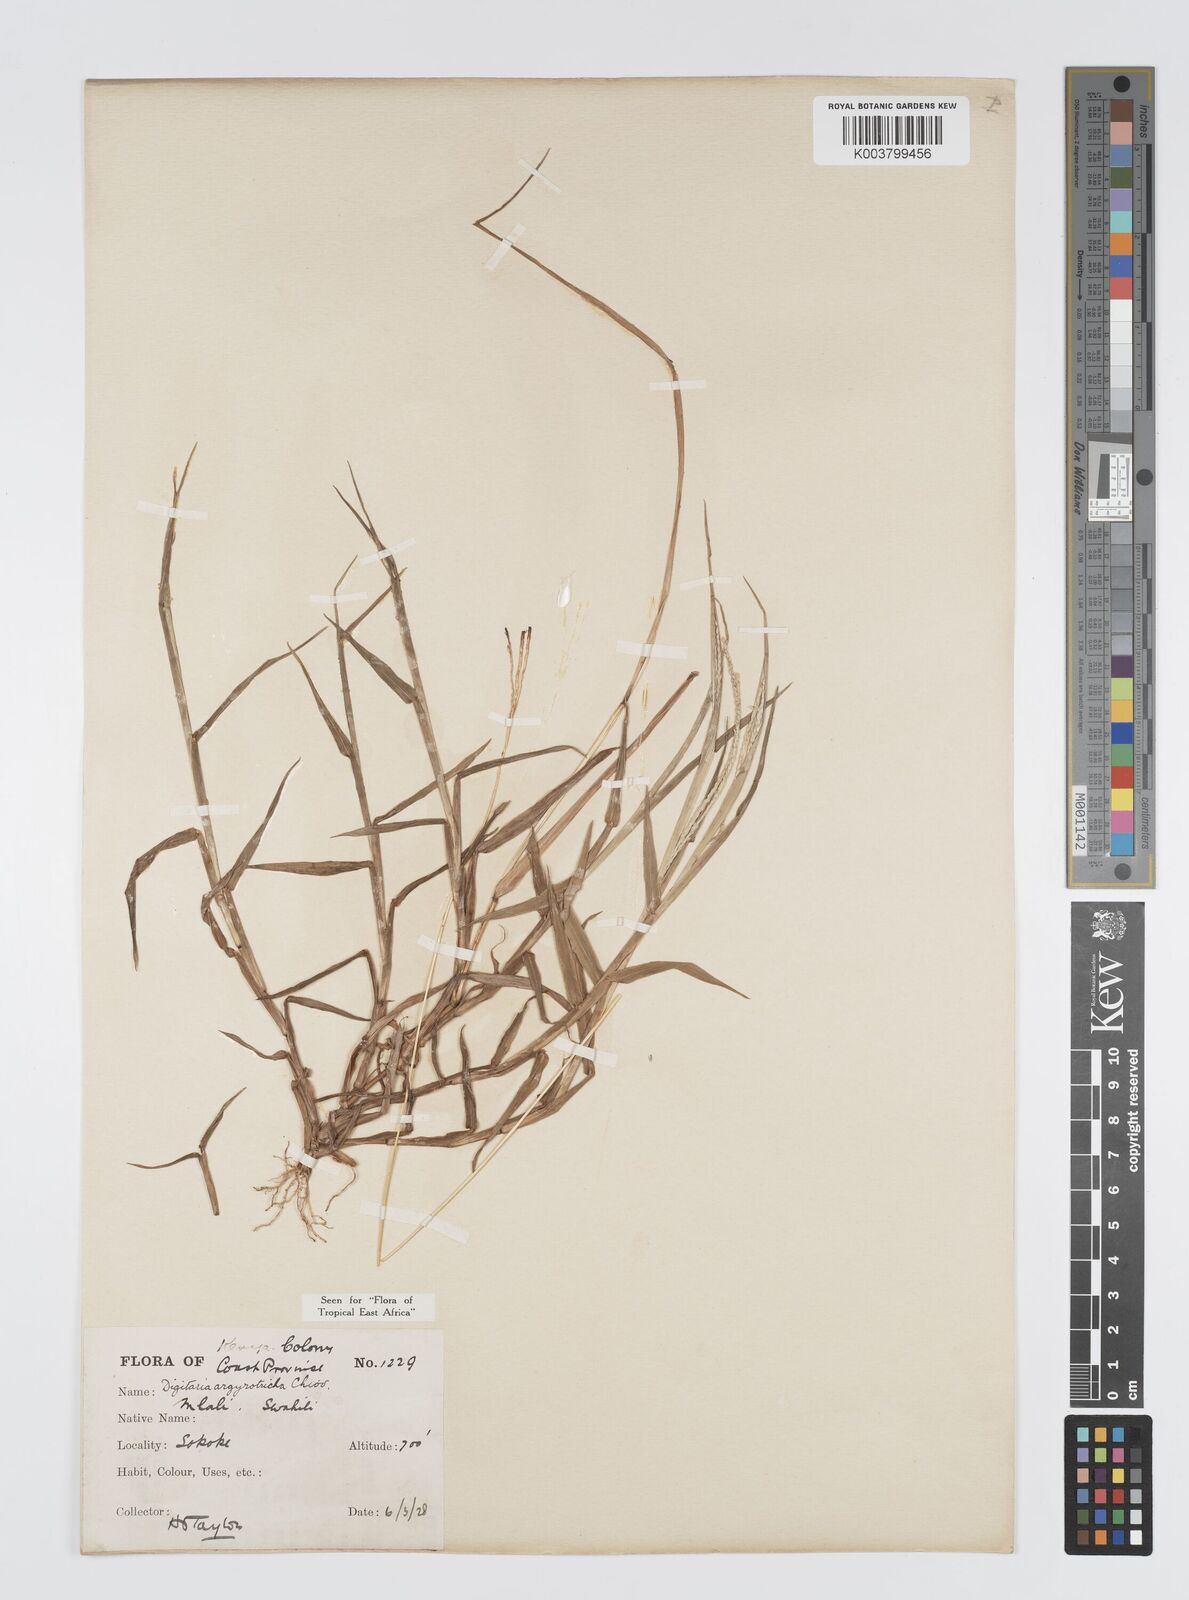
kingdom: Plantae
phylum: Tracheophyta
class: Liliopsida
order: Poales
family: Poaceae
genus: Digitaria
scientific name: Digitaria argyrotricha
